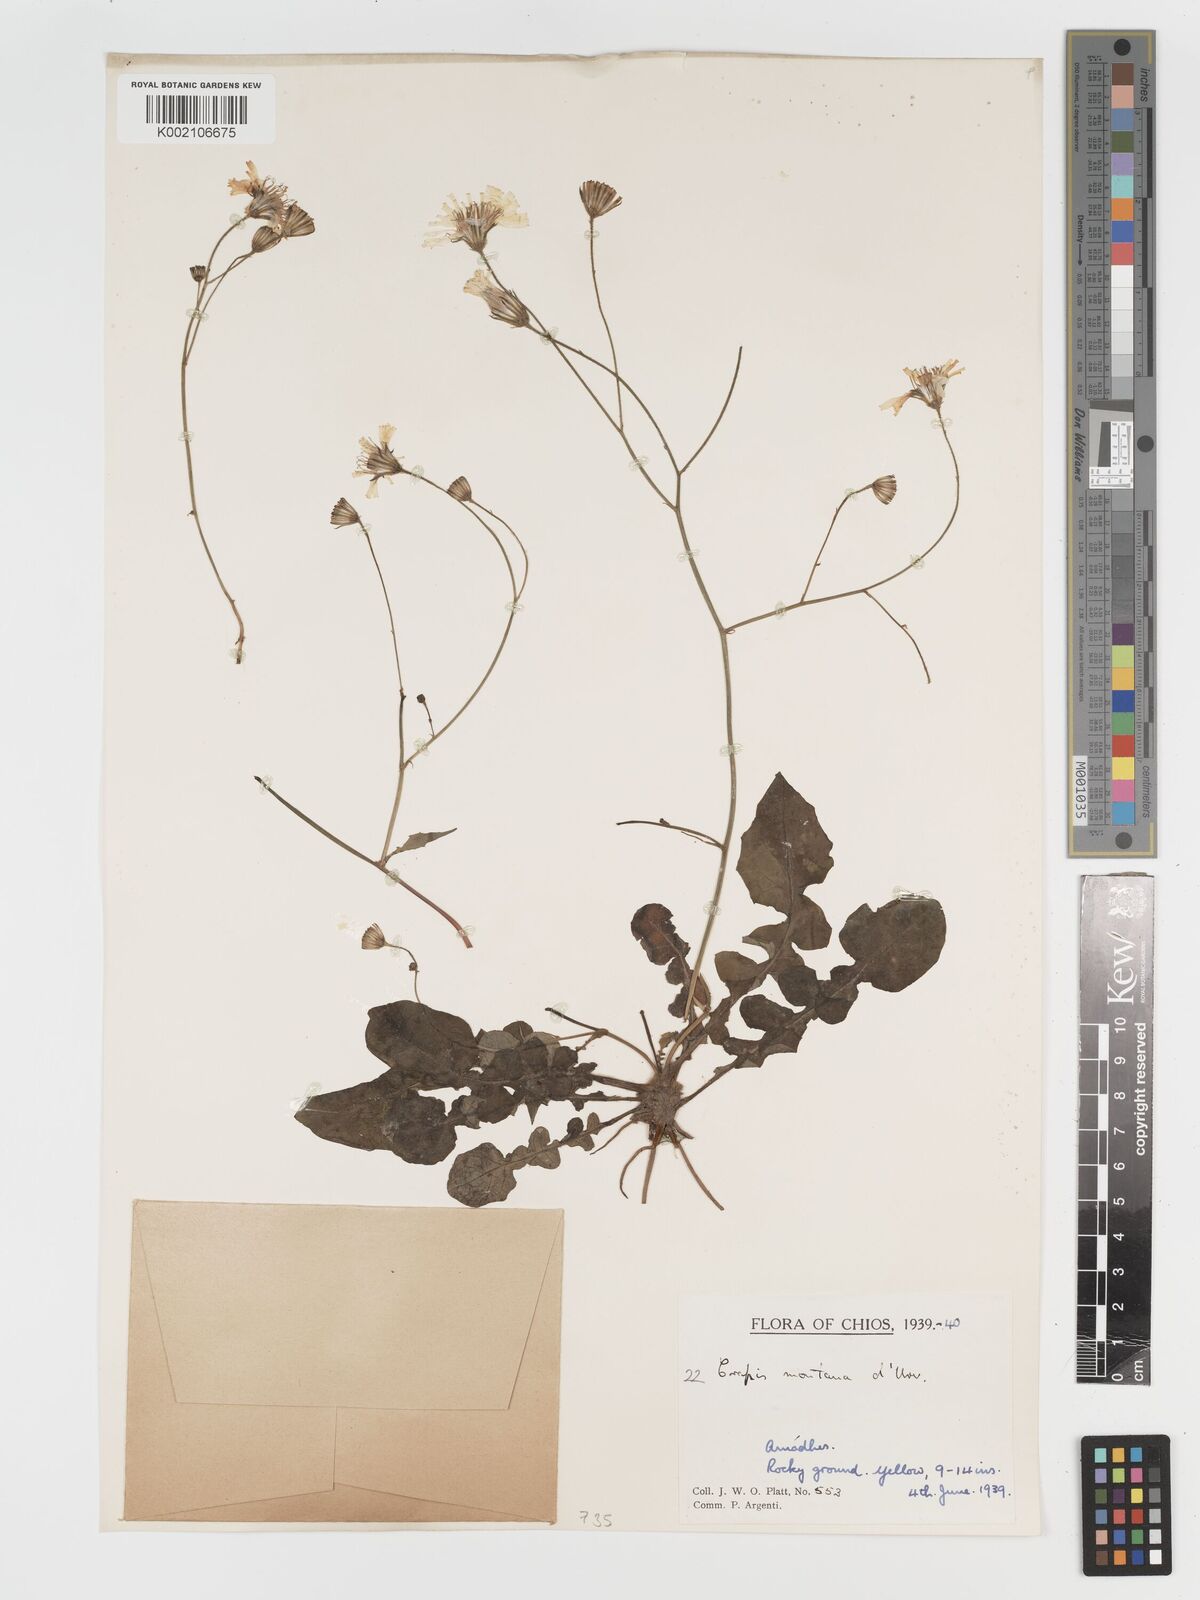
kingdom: Plantae
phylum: Tracheophyta
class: Magnoliopsida
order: Asterales
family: Asteraceae
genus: Crepis
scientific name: Crepis
